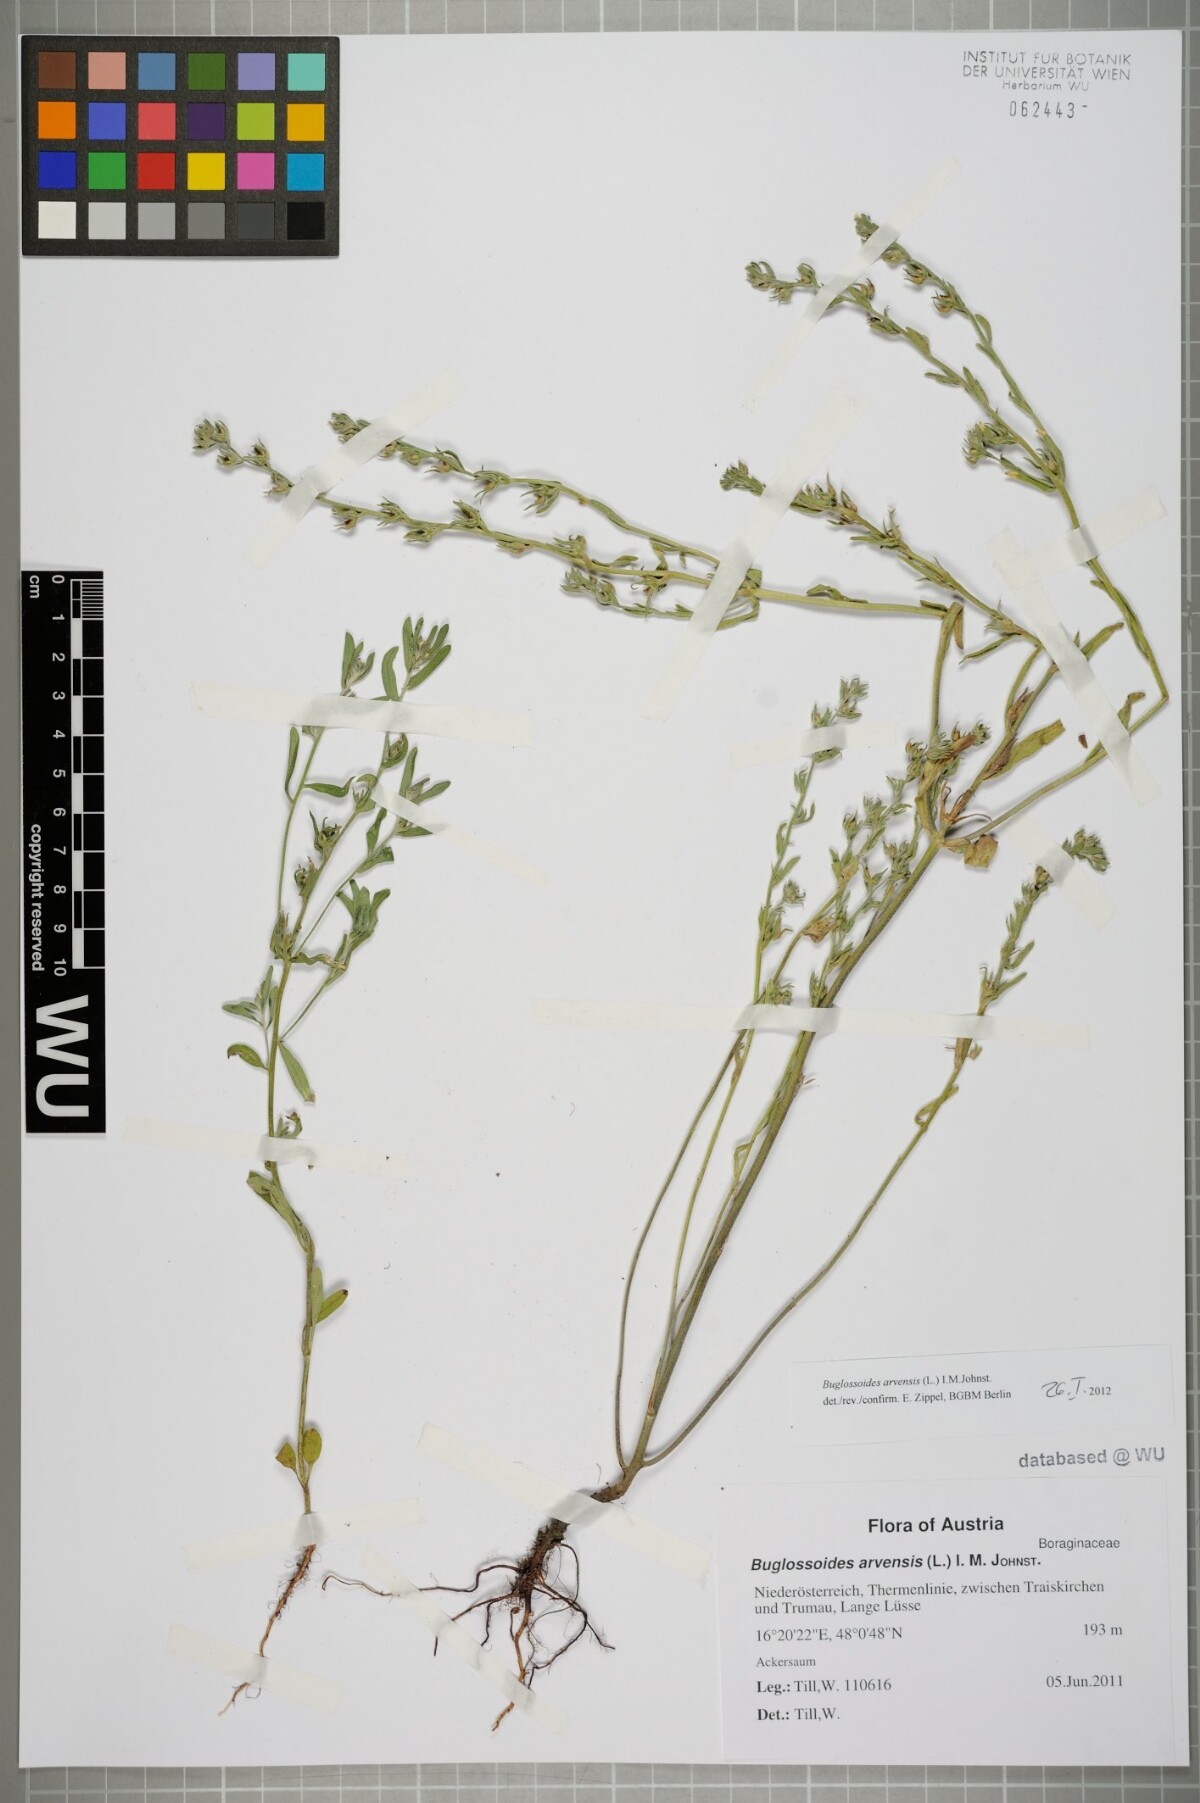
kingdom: Plantae
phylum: Tracheophyta
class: Magnoliopsida
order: Boraginales
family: Boraginaceae
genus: Buglossoides
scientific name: Buglossoides arvensis
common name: Corn gromwell
